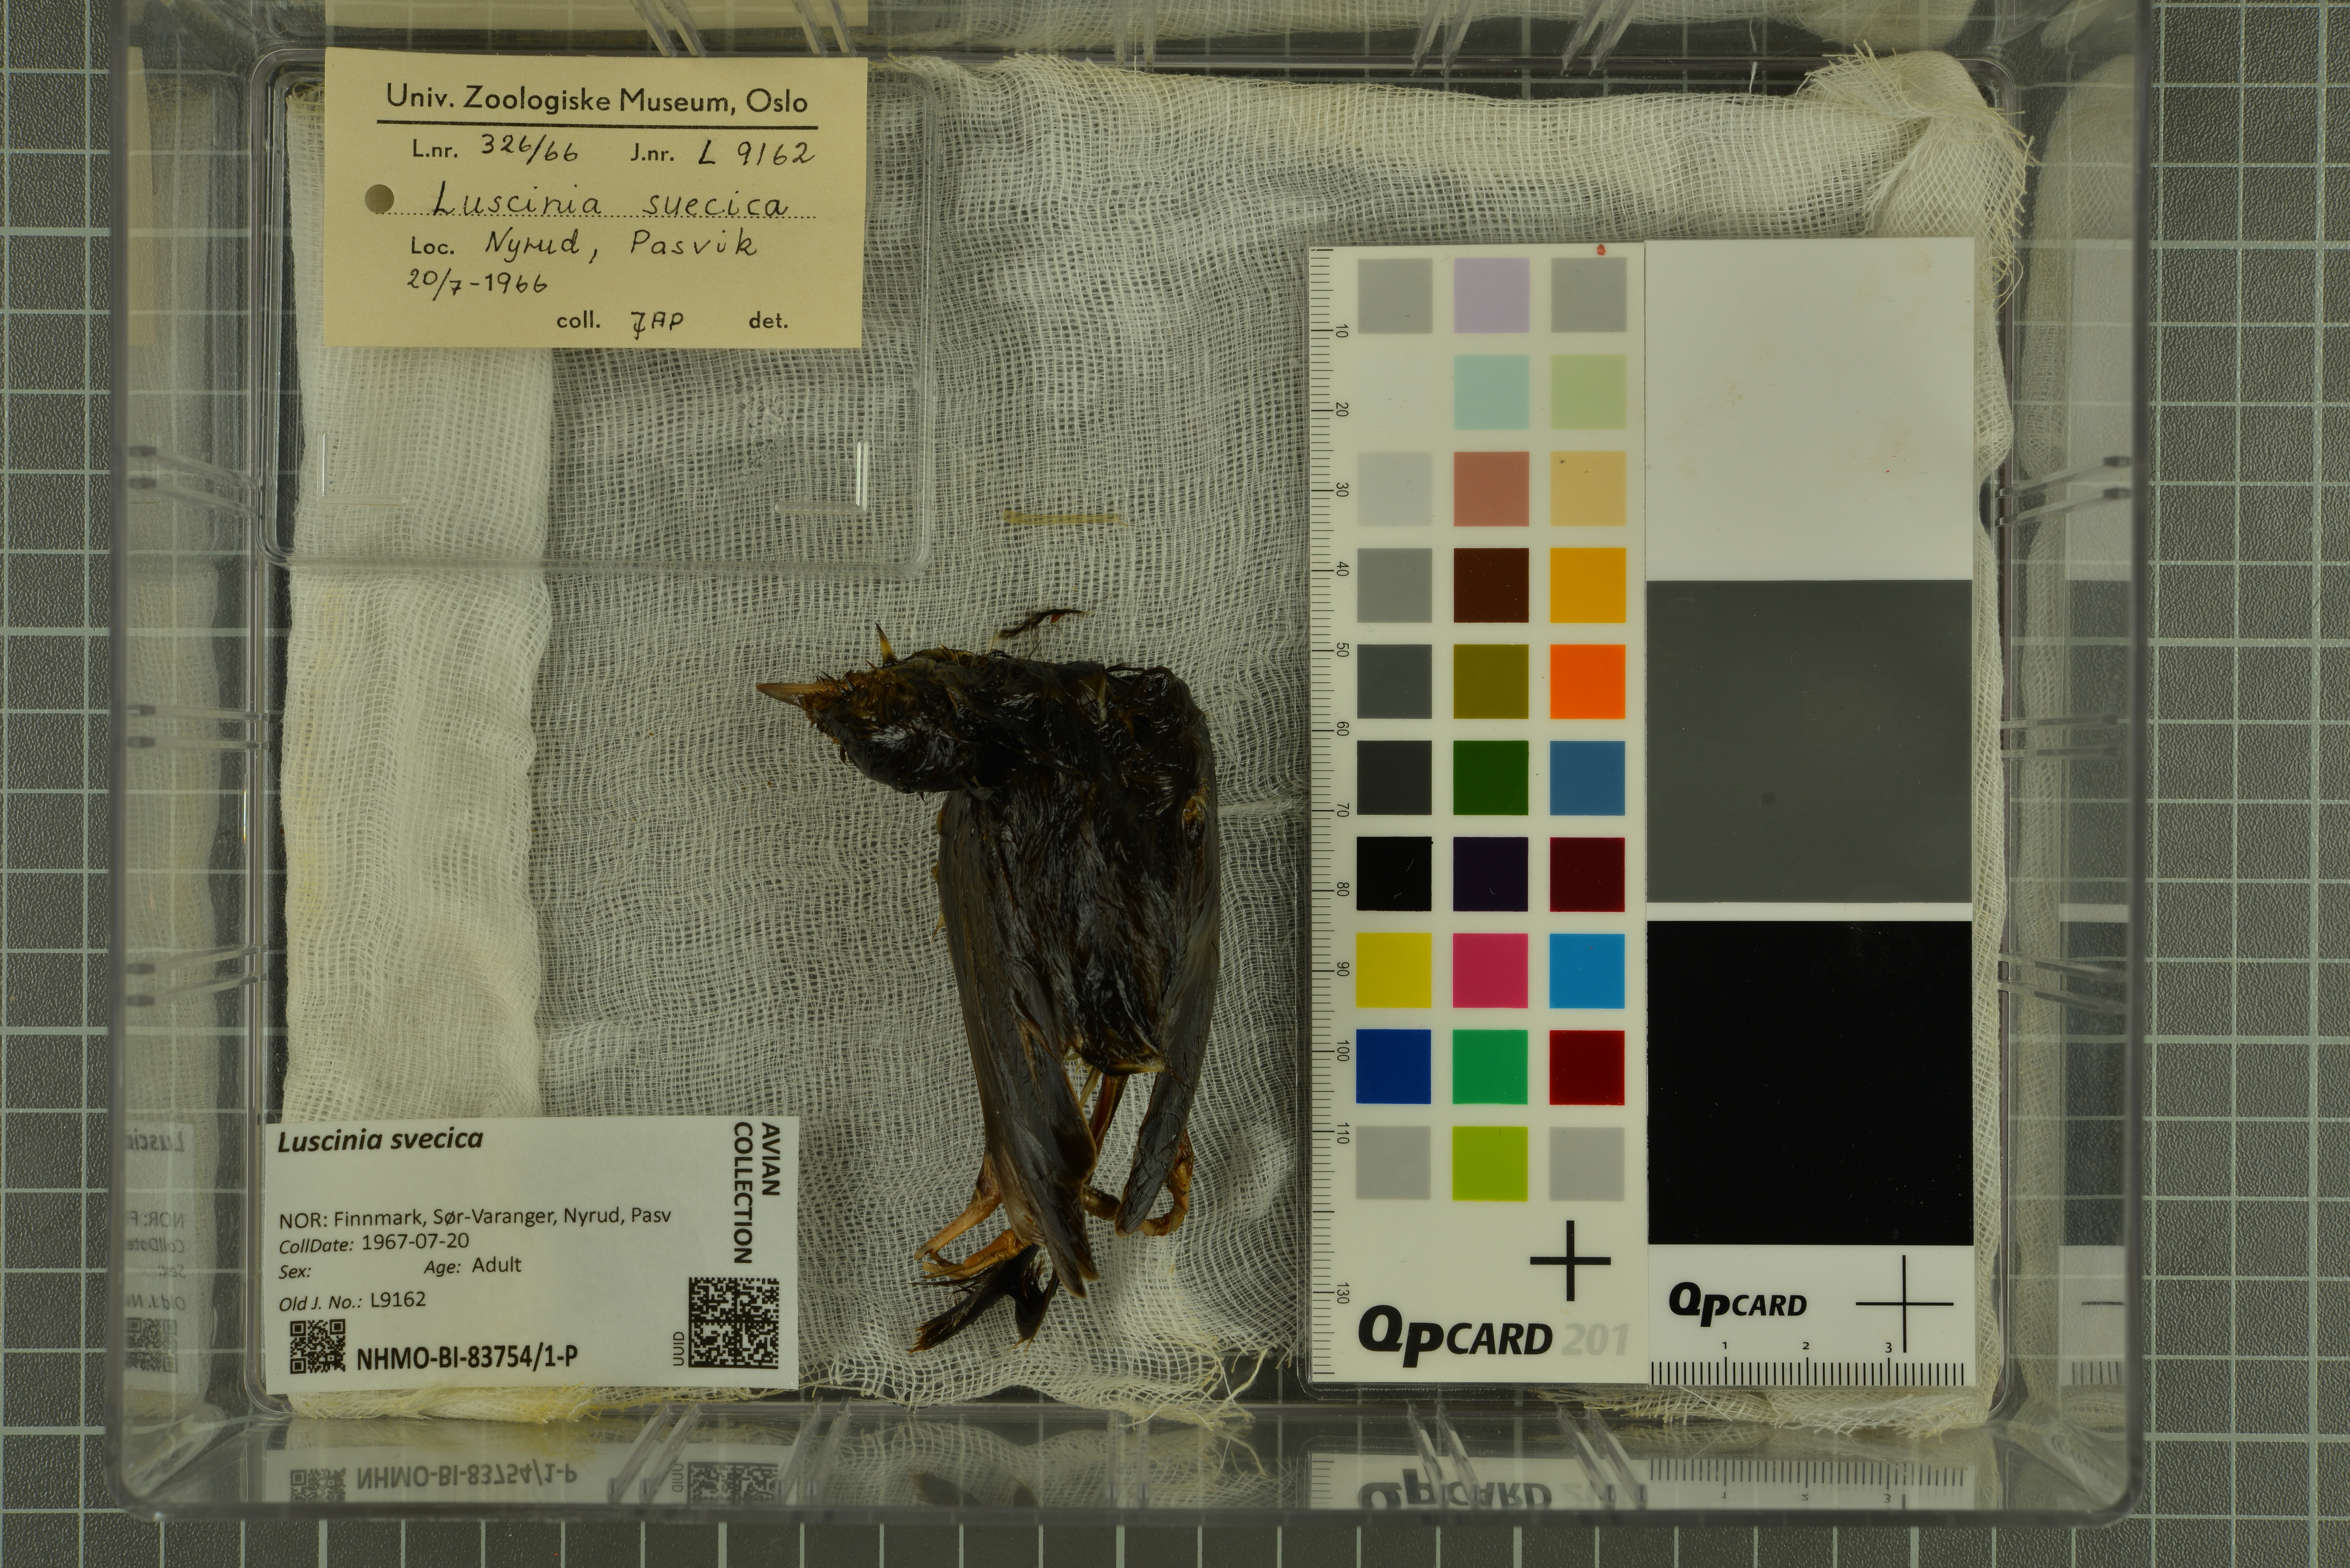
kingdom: Animalia
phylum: Chordata
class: Aves
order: Passeriformes
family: Muscicapidae
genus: Luscinia
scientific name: Luscinia svecica
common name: Bluethroat
